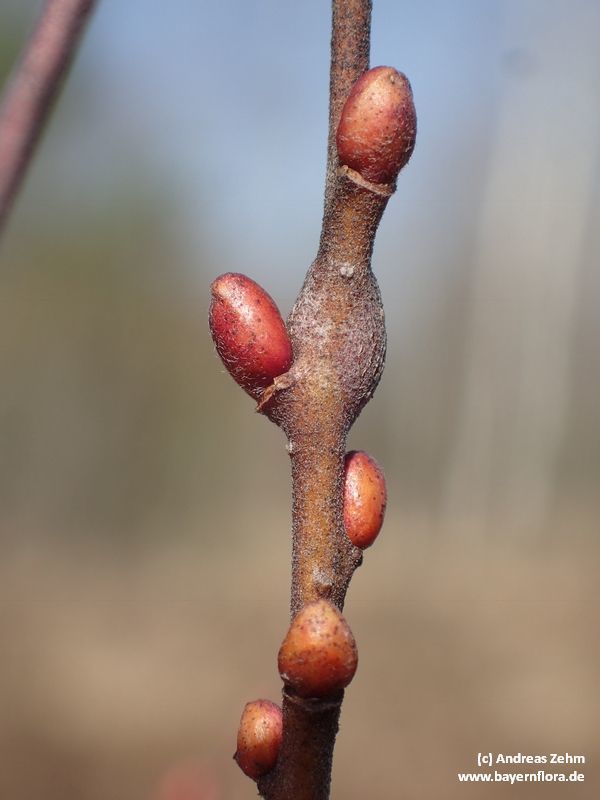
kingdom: Plantae
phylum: Tracheophyta
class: Magnoliopsida
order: Malpighiales
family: Salicaceae
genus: Salix
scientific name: Salix myrtilloides
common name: Myrtle-leaved willow
